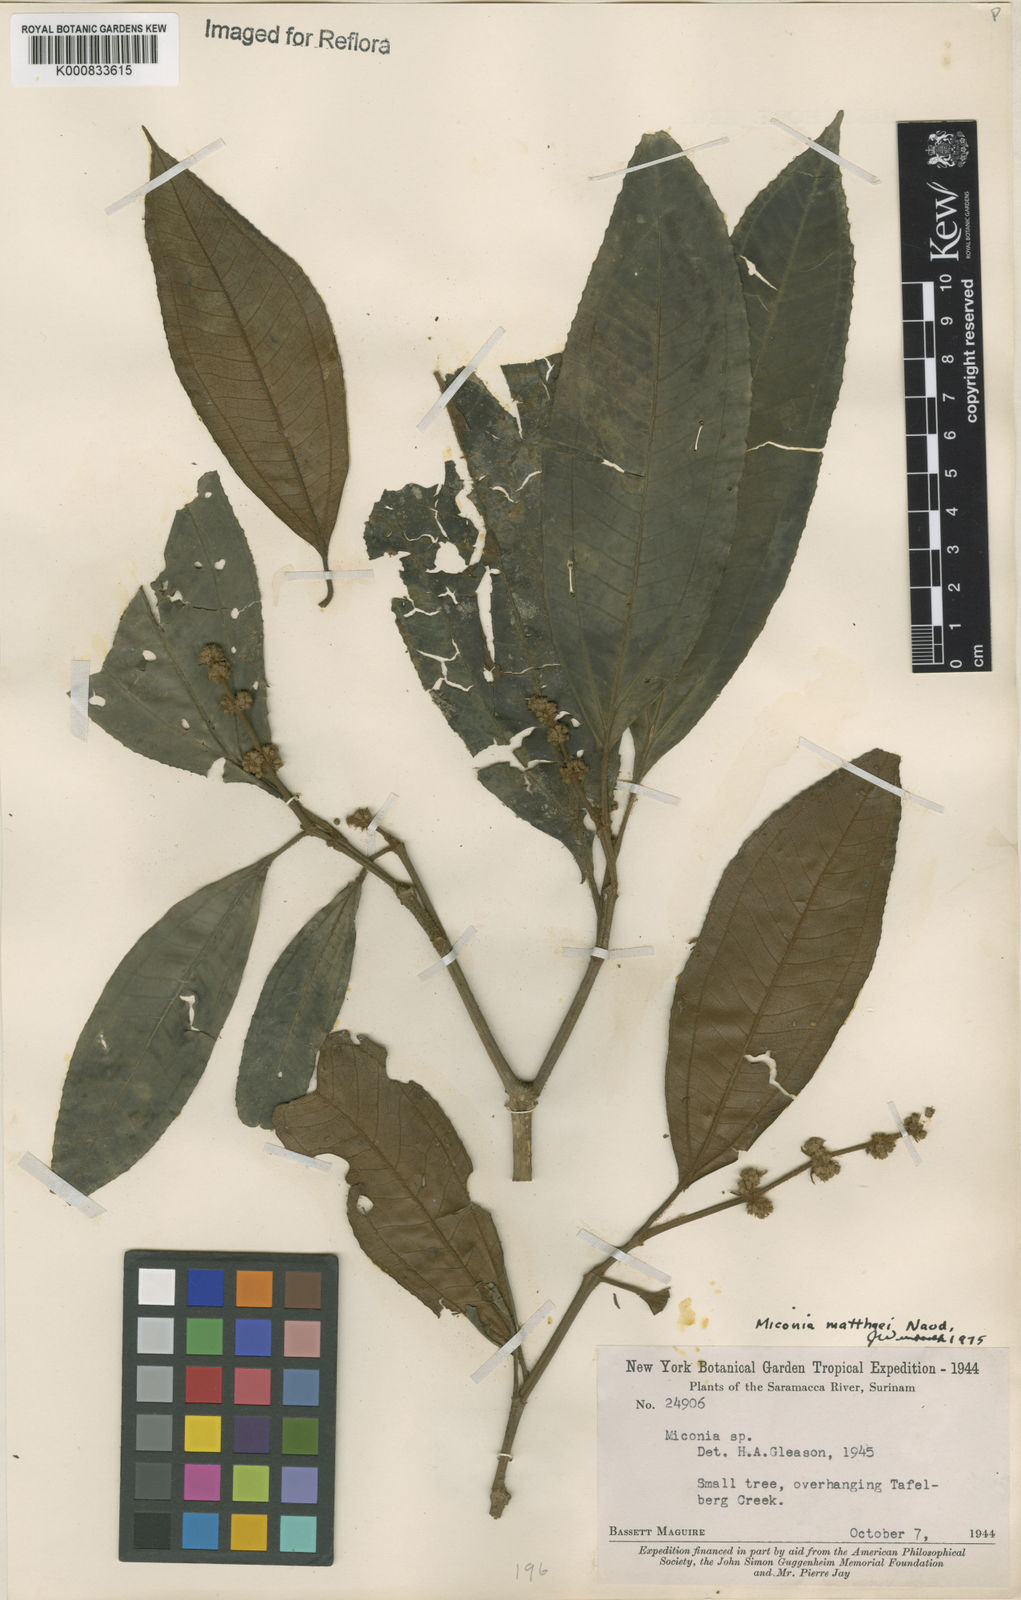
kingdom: Plantae
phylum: Tracheophyta
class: Magnoliopsida
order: Myrtales
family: Melastomataceae
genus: Miconia
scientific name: Miconia matthaei
